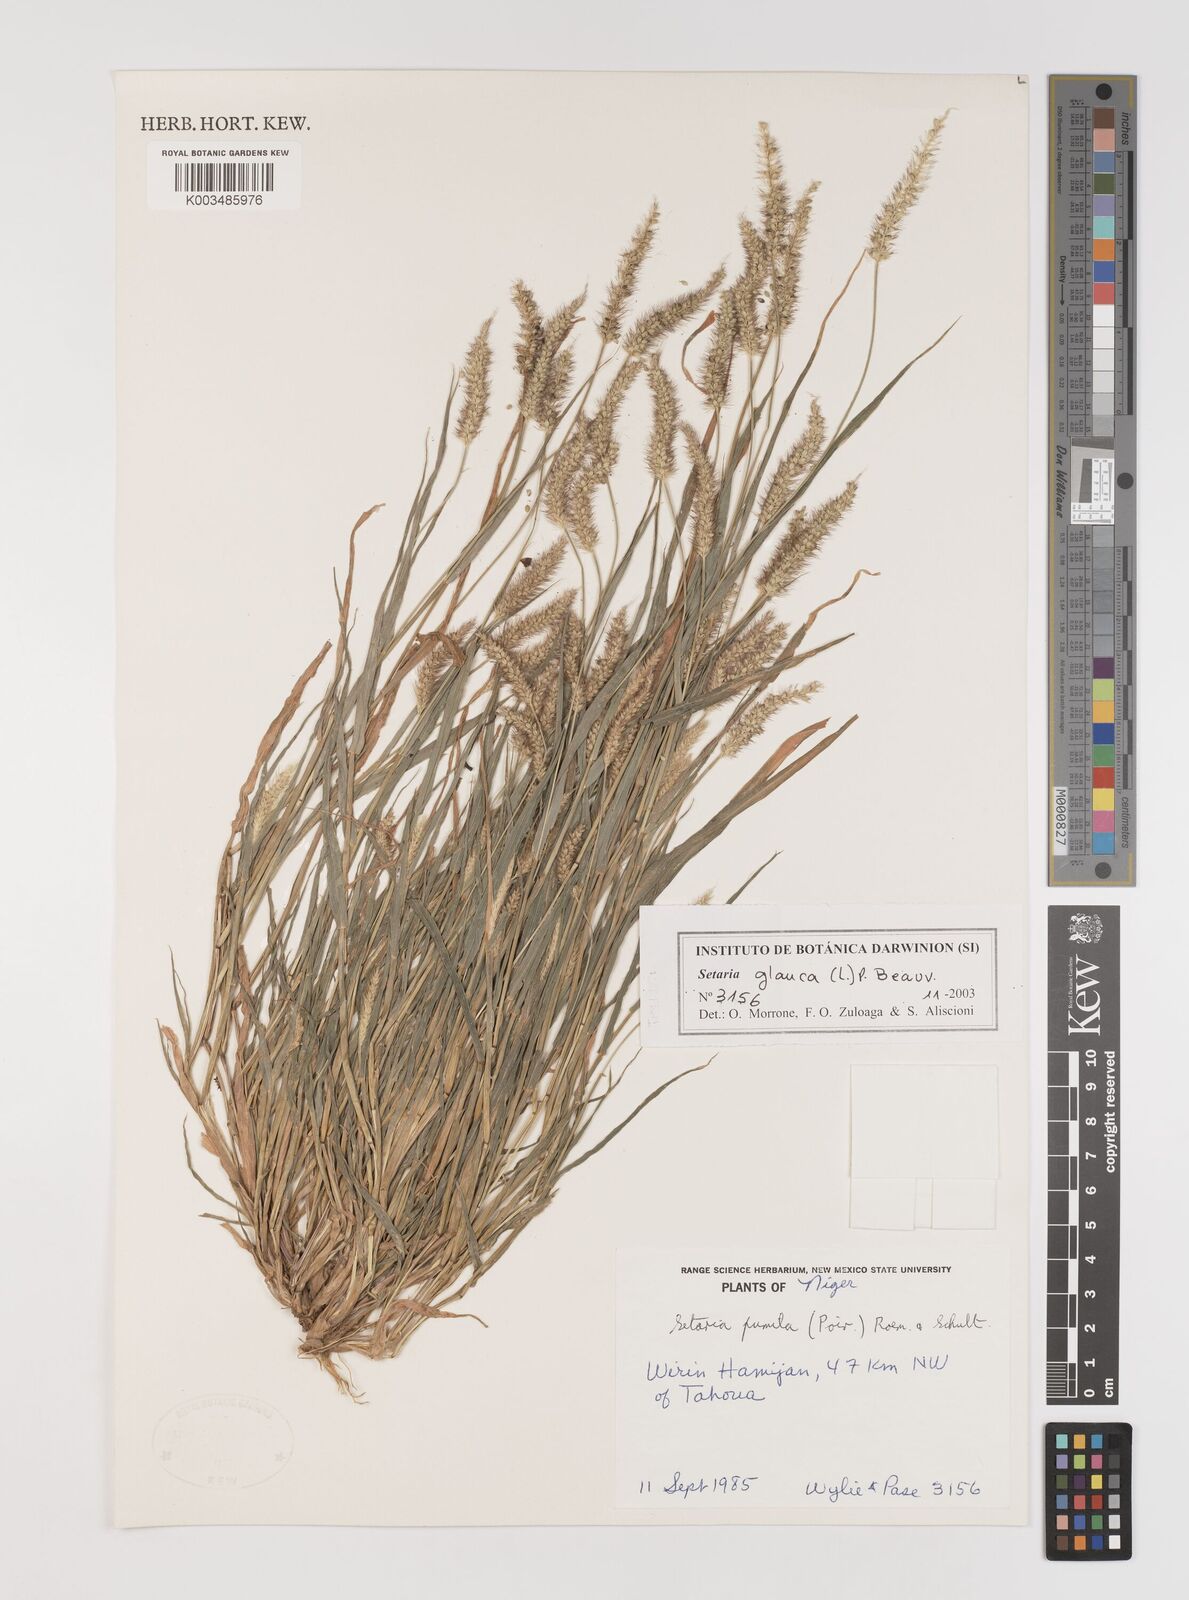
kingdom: Plantae
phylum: Tracheophyta
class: Liliopsida
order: Poales
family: Poaceae
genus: Setaria
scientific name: Setaria pumila
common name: Yellow bristle-grass
